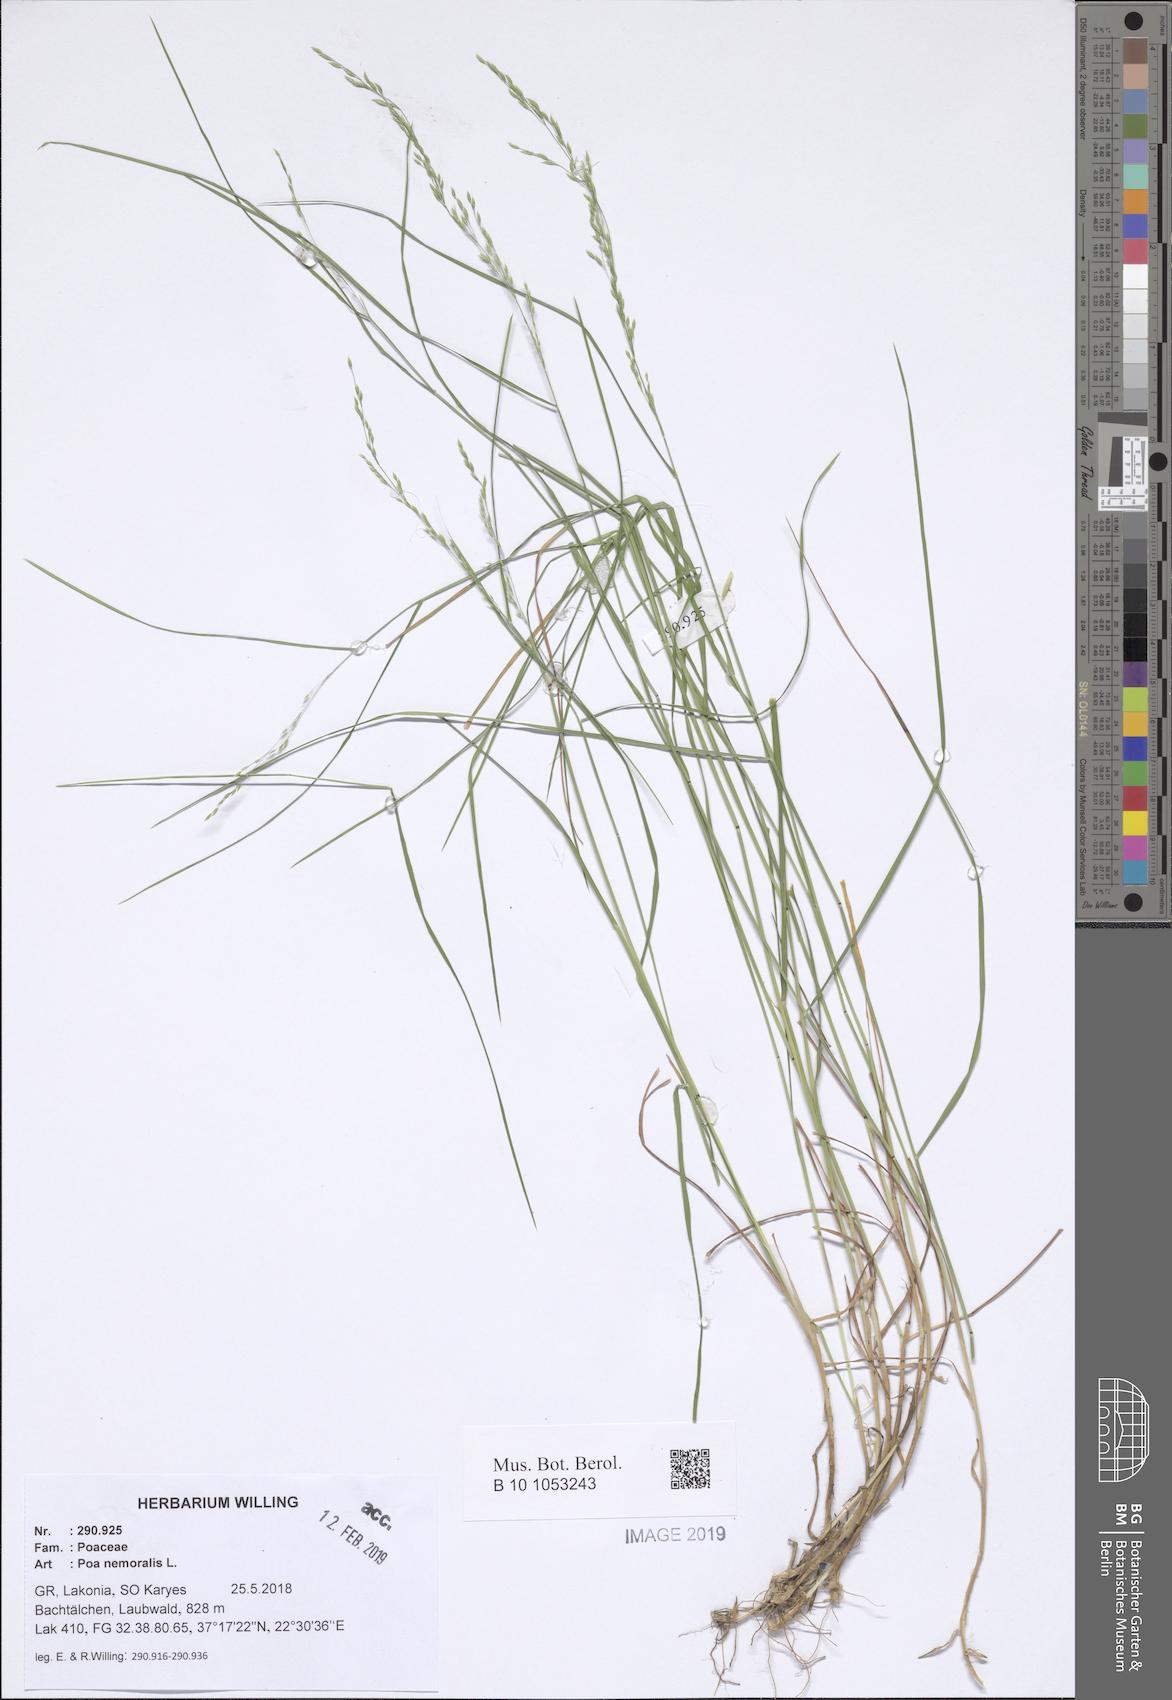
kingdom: Plantae
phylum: Tracheophyta
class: Liliopsida
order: Poales
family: Poaceae
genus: Poa
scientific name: Poa nemoralis
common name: Wood bluegrass
